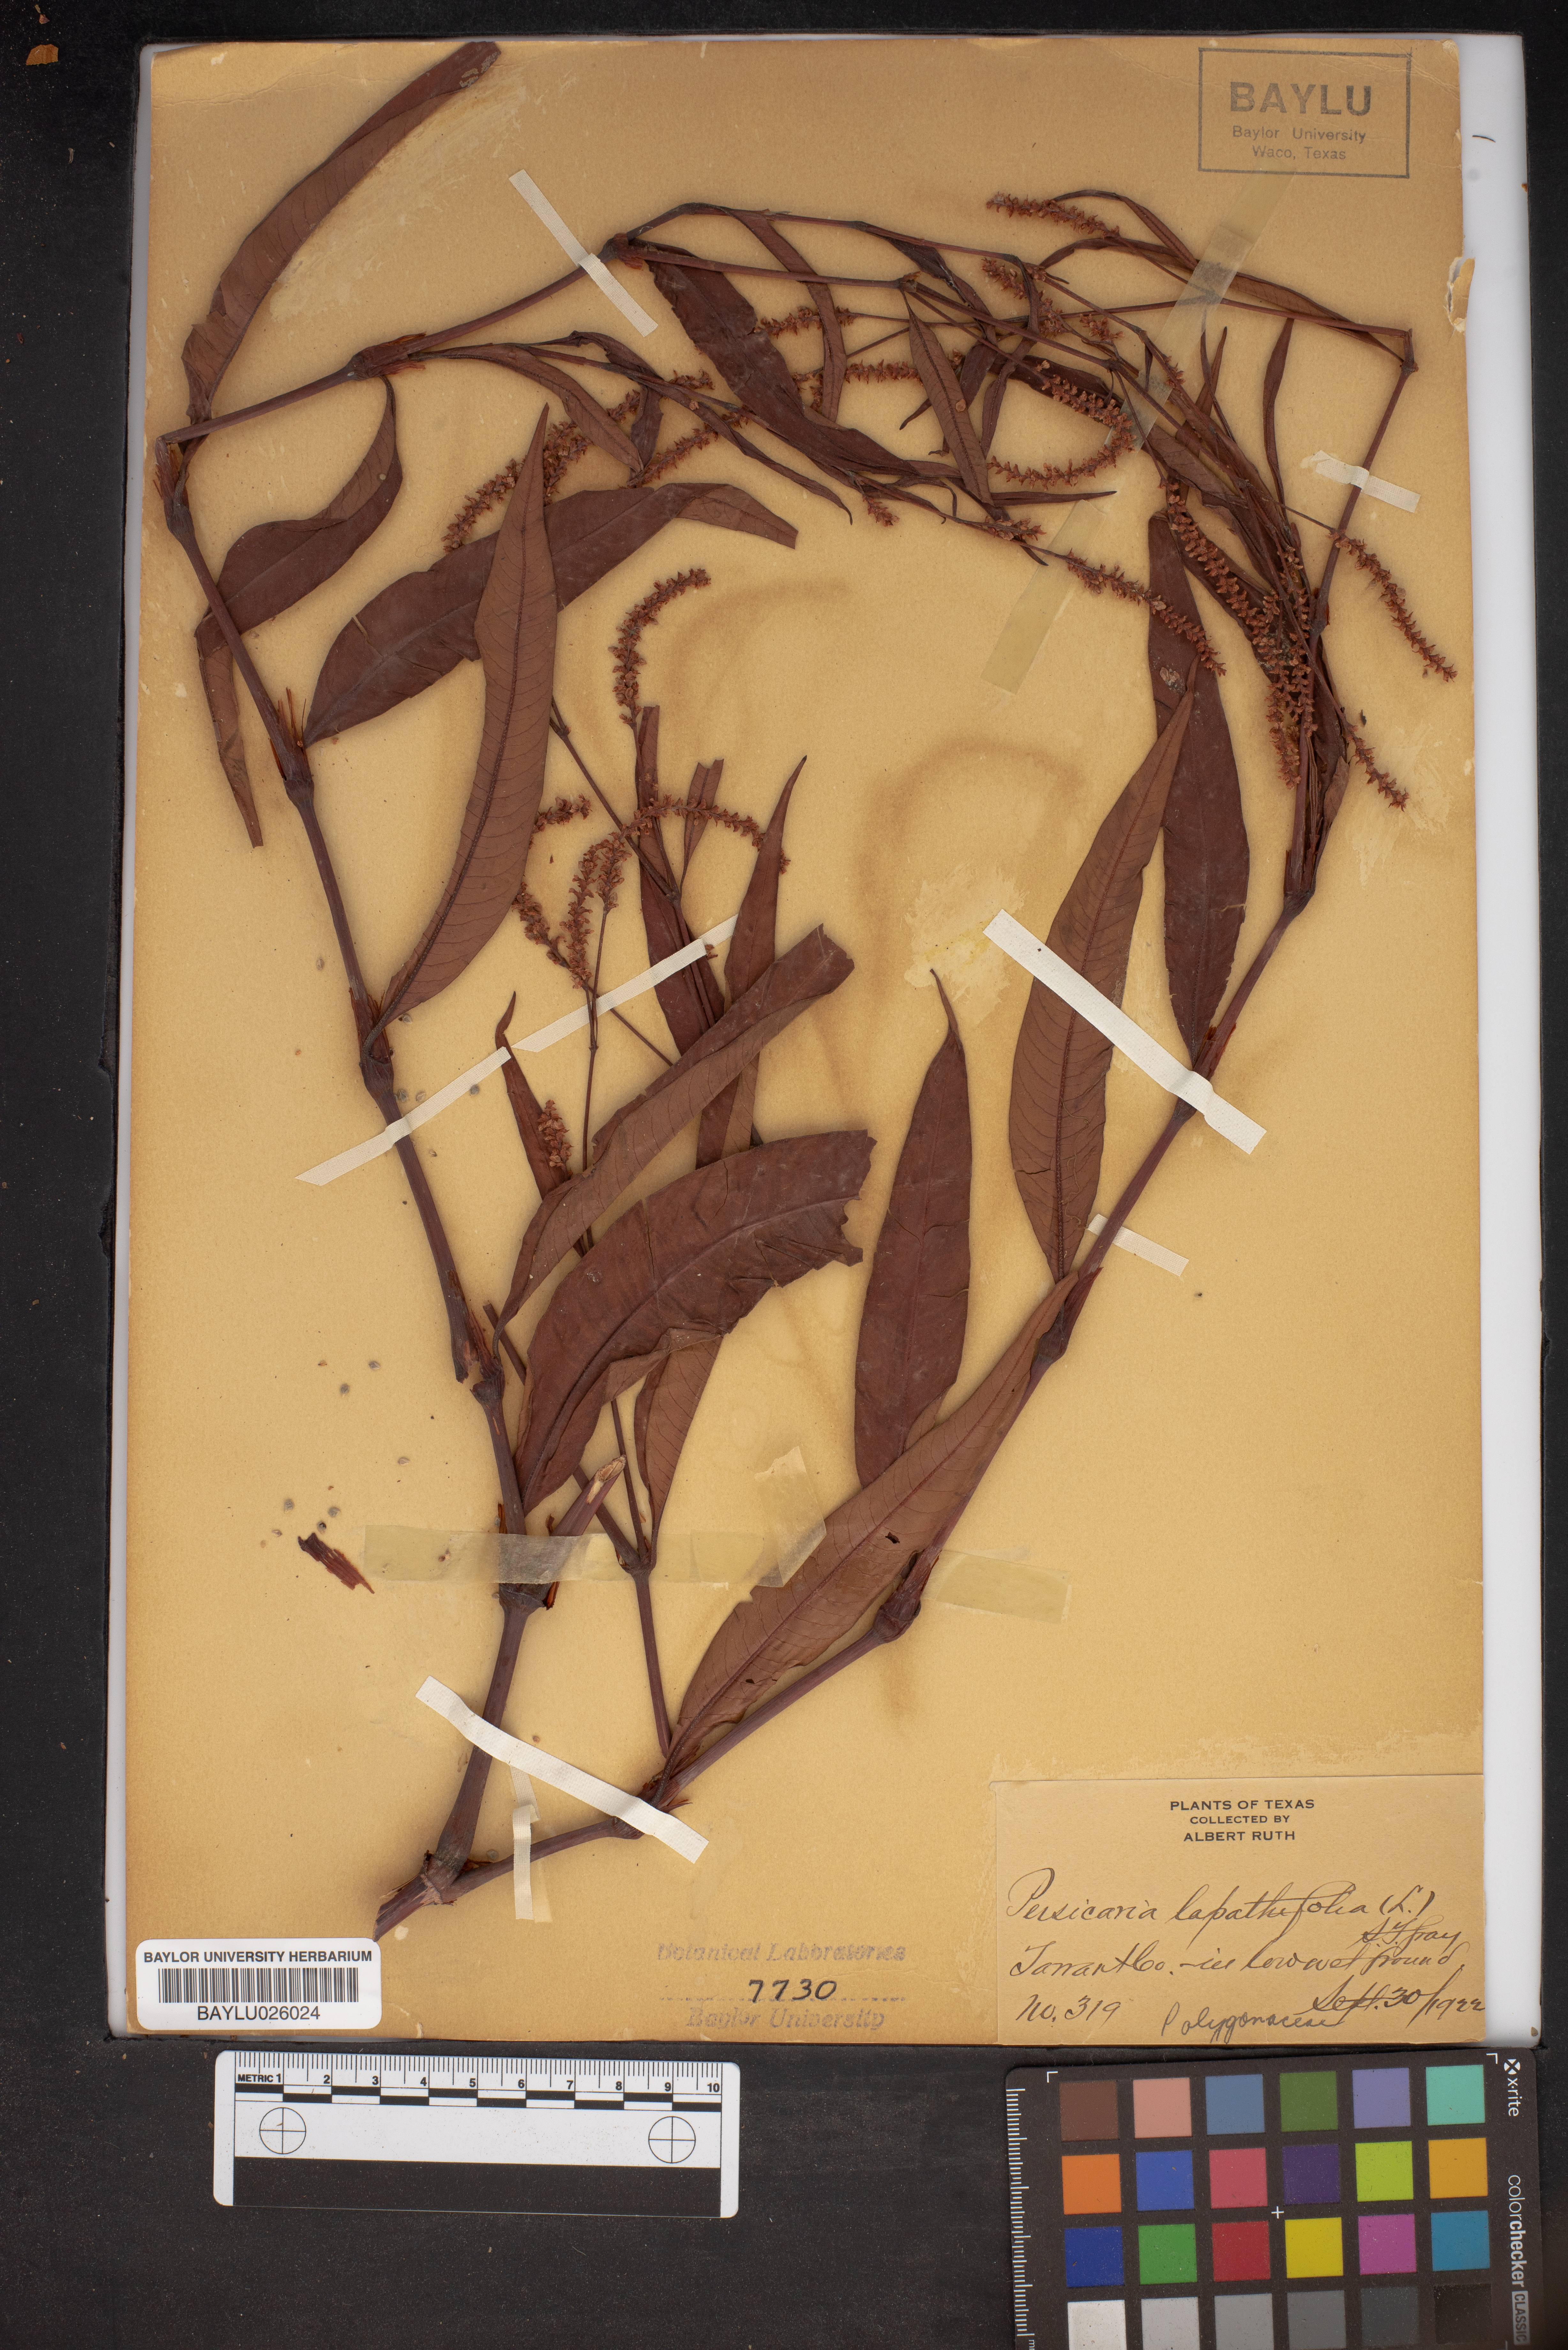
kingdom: Plantae
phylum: Tracheophyta
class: Magnoliopsida
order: Caryophyllales
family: Polygonaceae
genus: Persicaria
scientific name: Persicaria lapathifolia
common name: Curlytop knotweed
